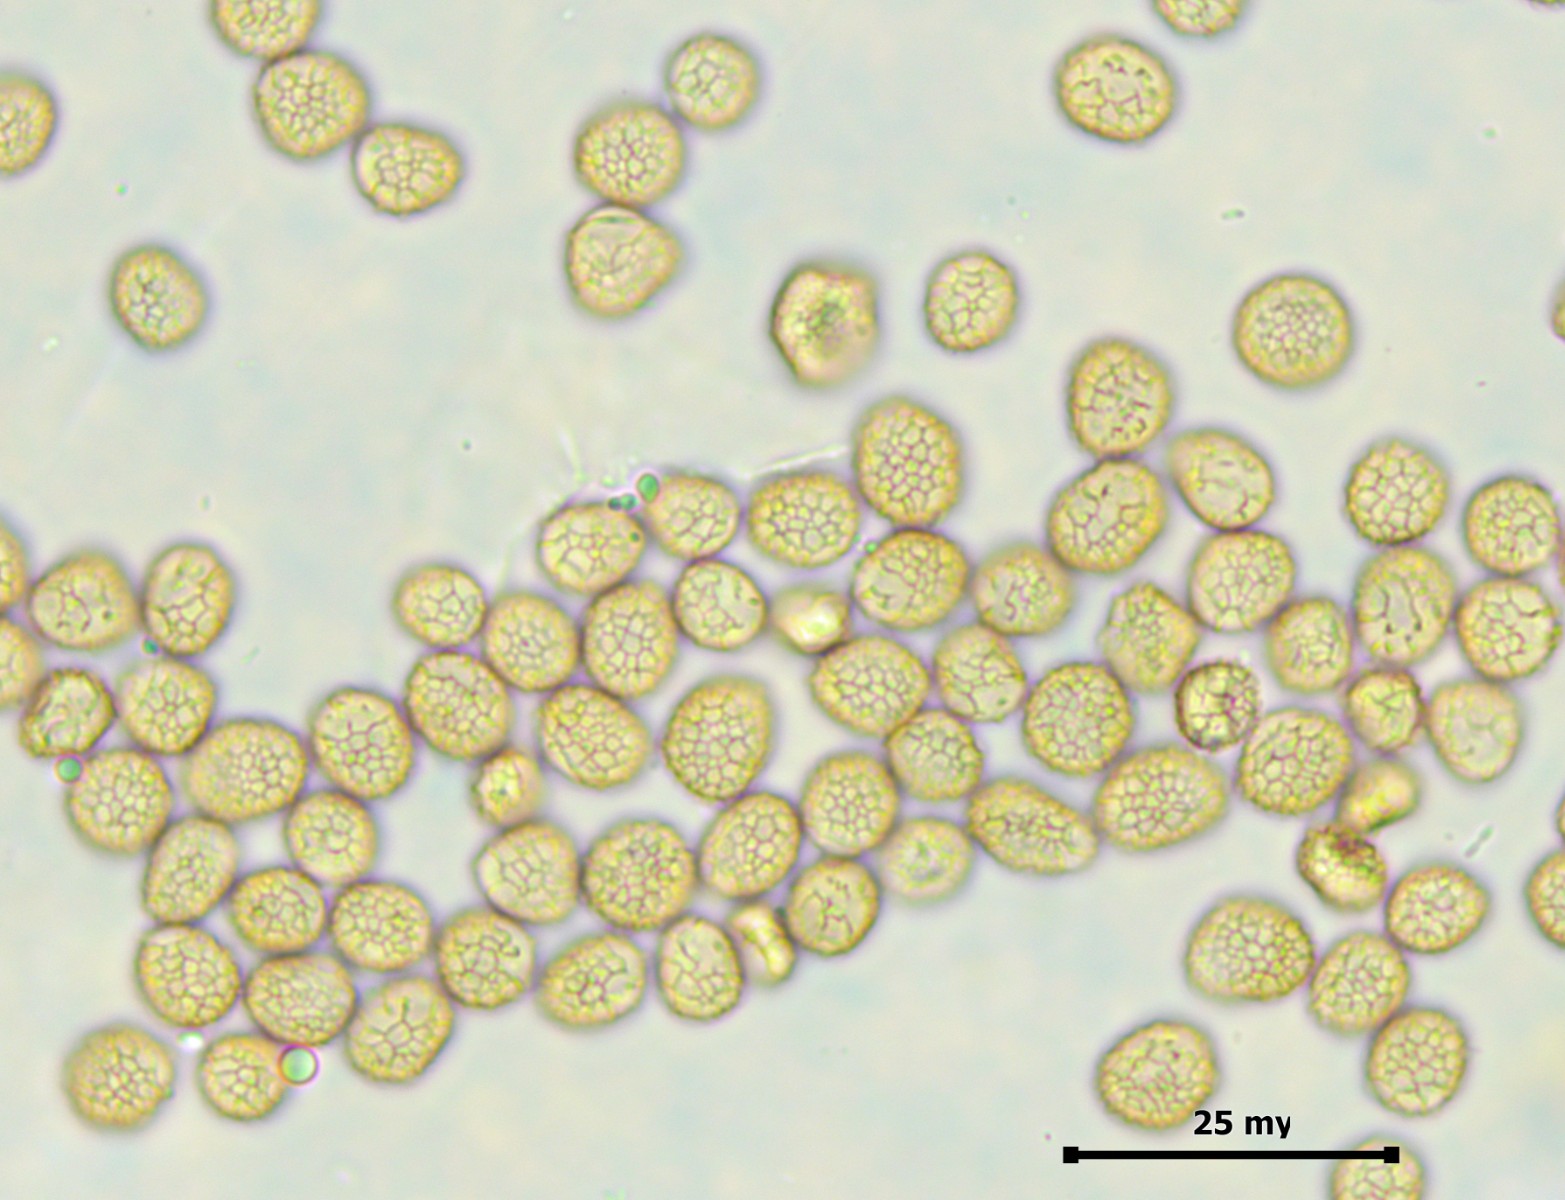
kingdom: Protozoa
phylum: Mycetozoa
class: Myxomycetes
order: Cribrariales
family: Tubiferaceae
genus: Tubifera
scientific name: Tubifera montana
